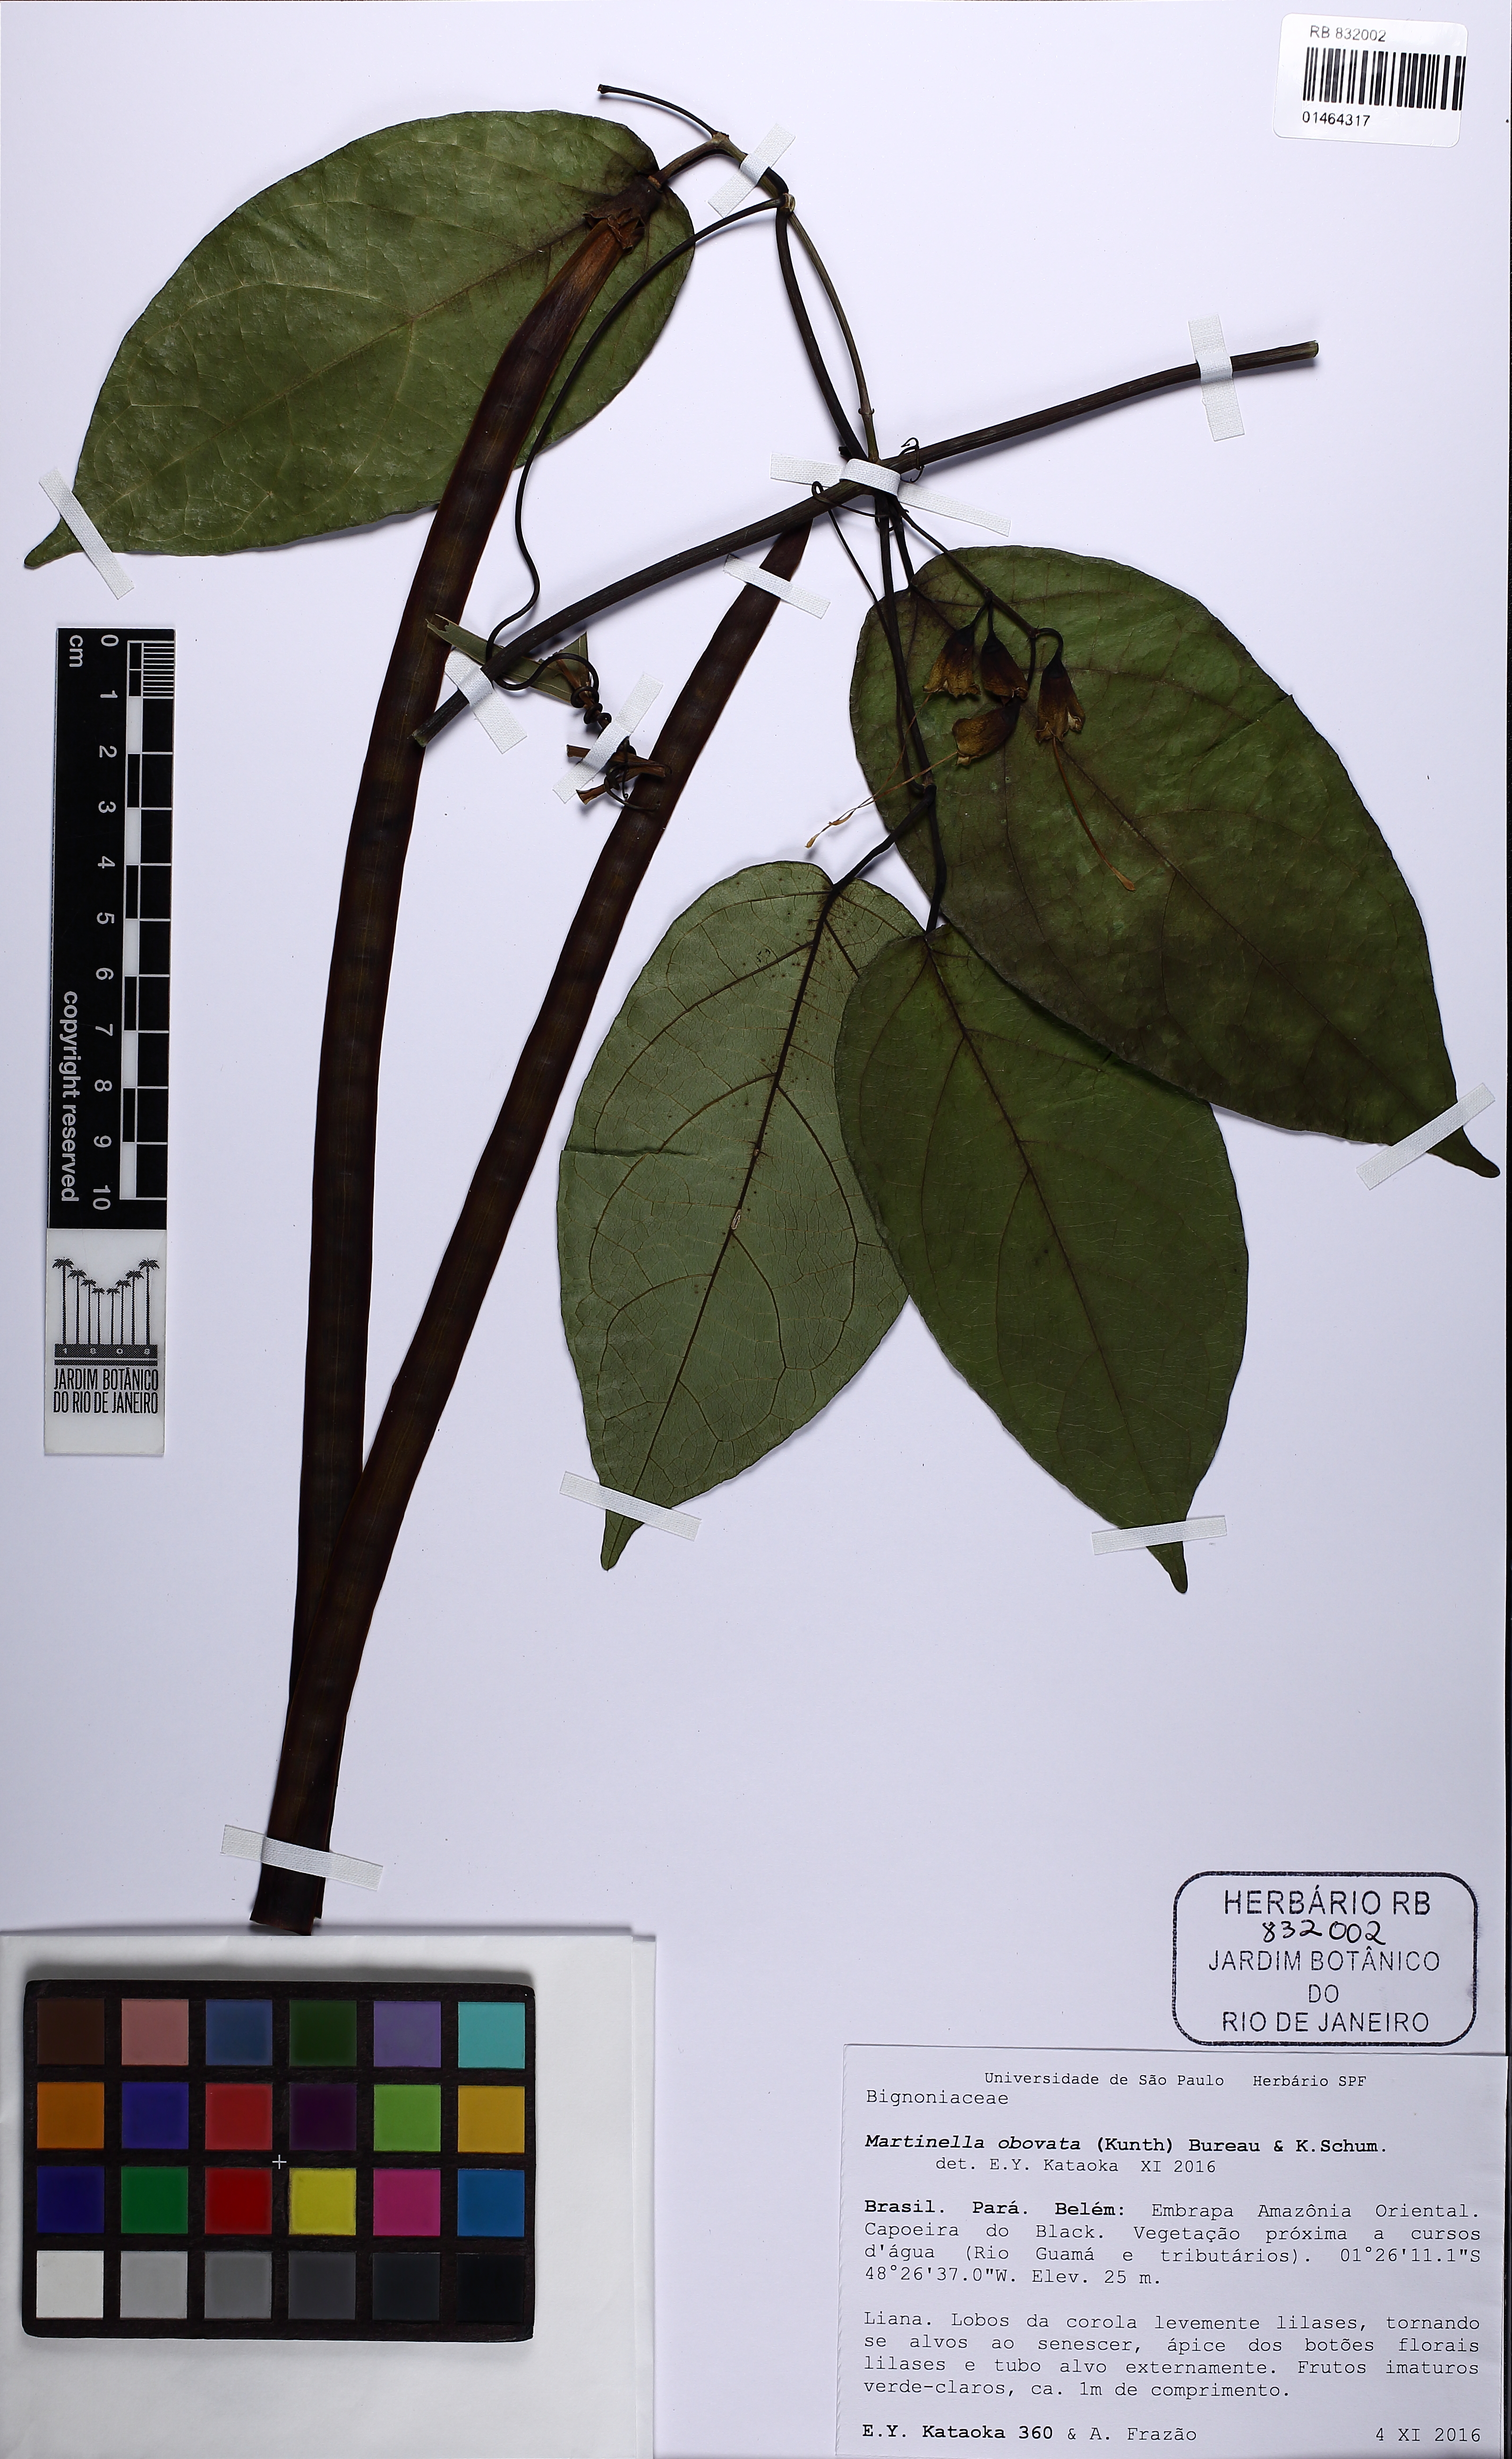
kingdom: Animalia
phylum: Arthropoda
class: Insecta
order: Coleoptera
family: Chrysomelidae
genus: Martinella
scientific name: Martinella obovata
